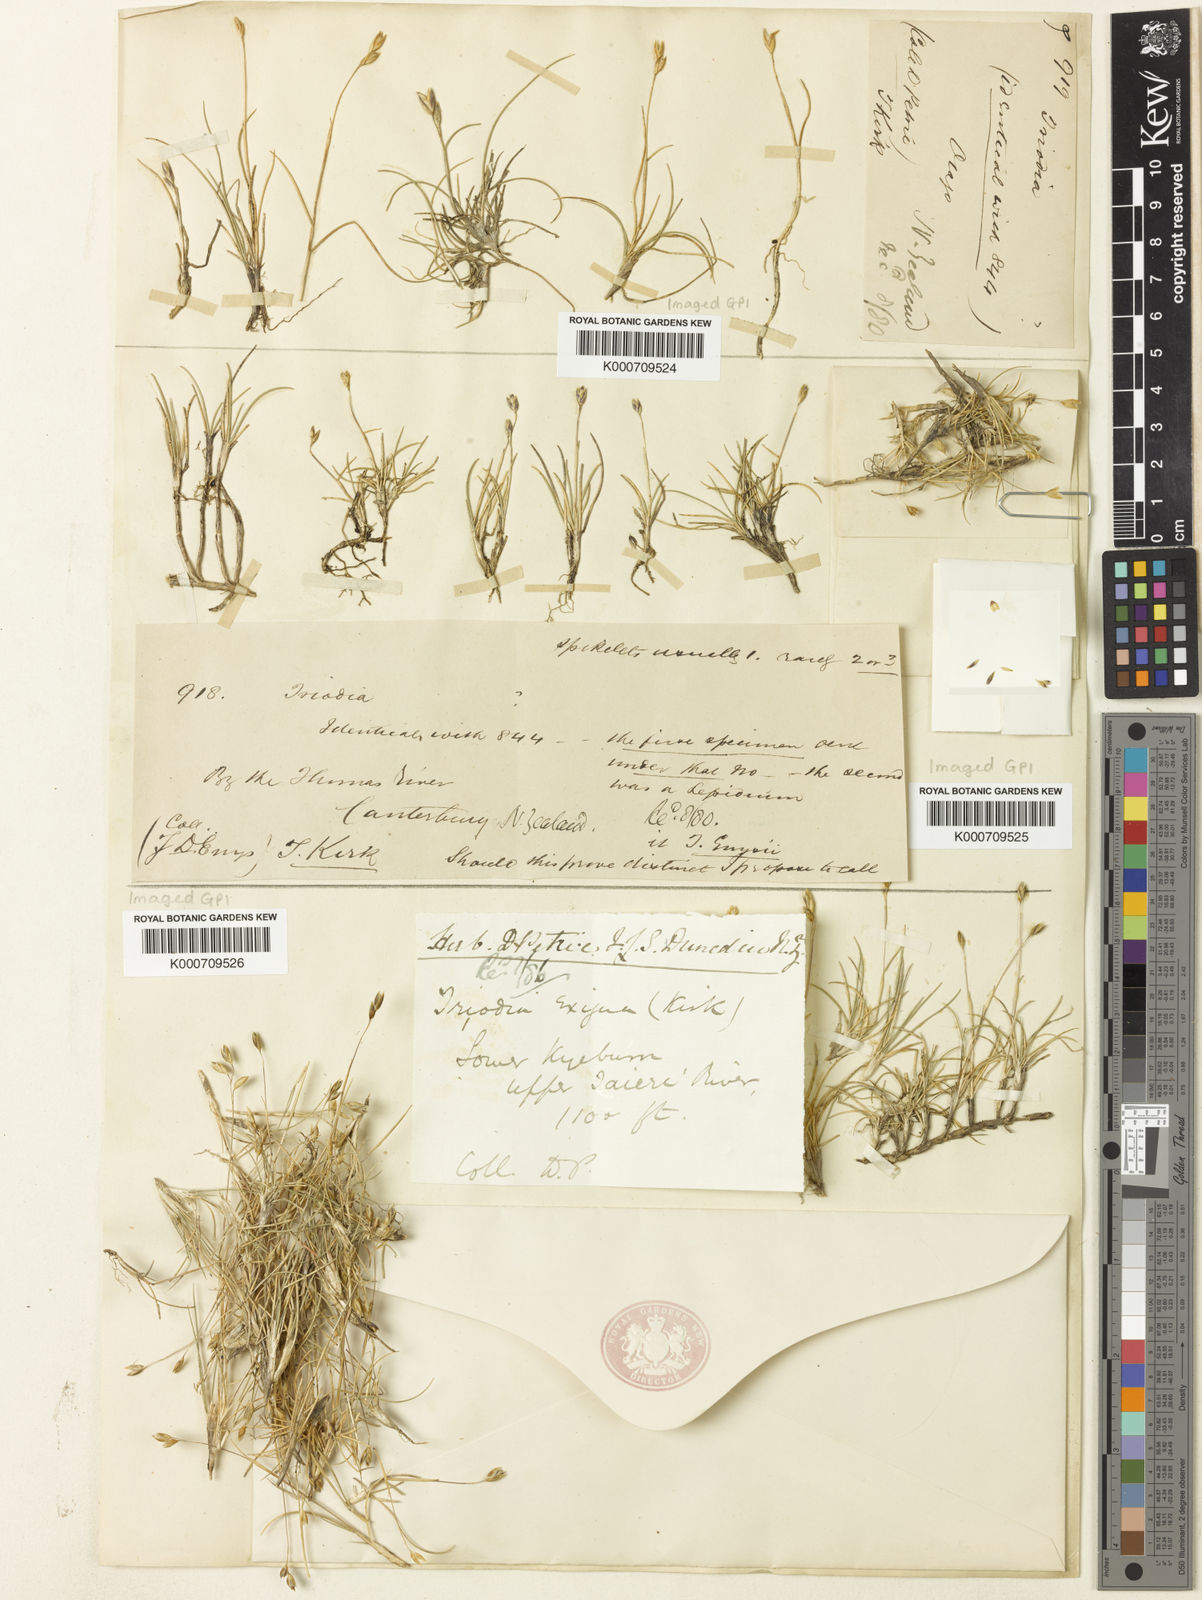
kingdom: Plantae
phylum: Tracheophyta
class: Liliopsida
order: Poales
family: Poaceae
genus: Rytidosperma
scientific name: Rytidosperma exiguum
